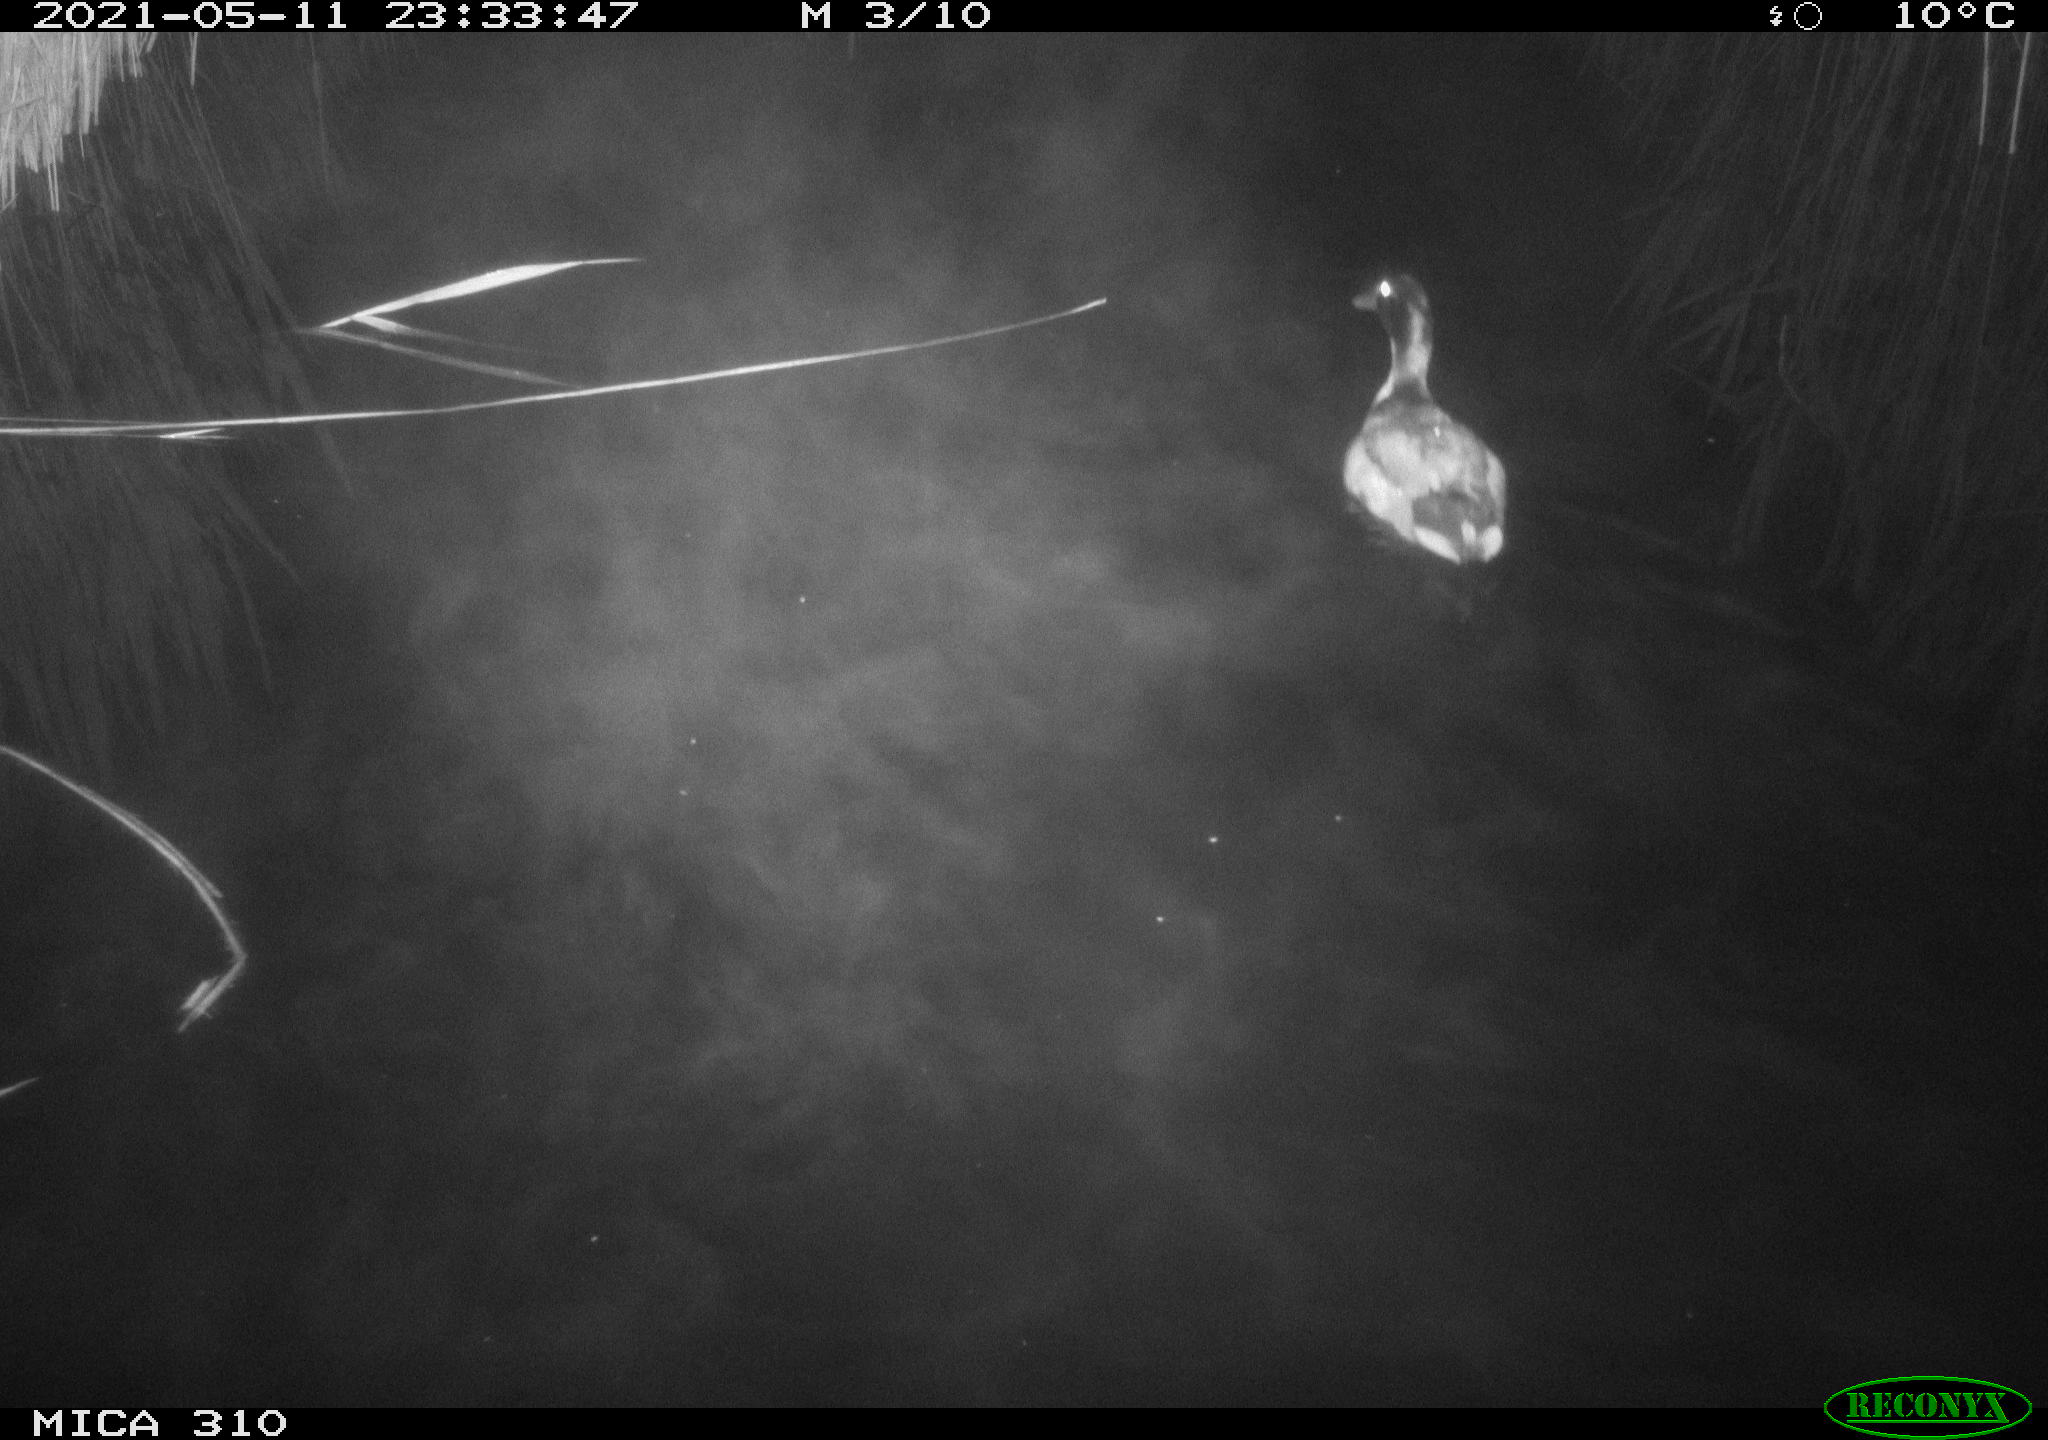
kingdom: Animalia
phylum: Chordata
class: Aves
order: Anseriformes
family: Anatidae
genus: Anas
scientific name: Anas platyrhynchos
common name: Mallard
